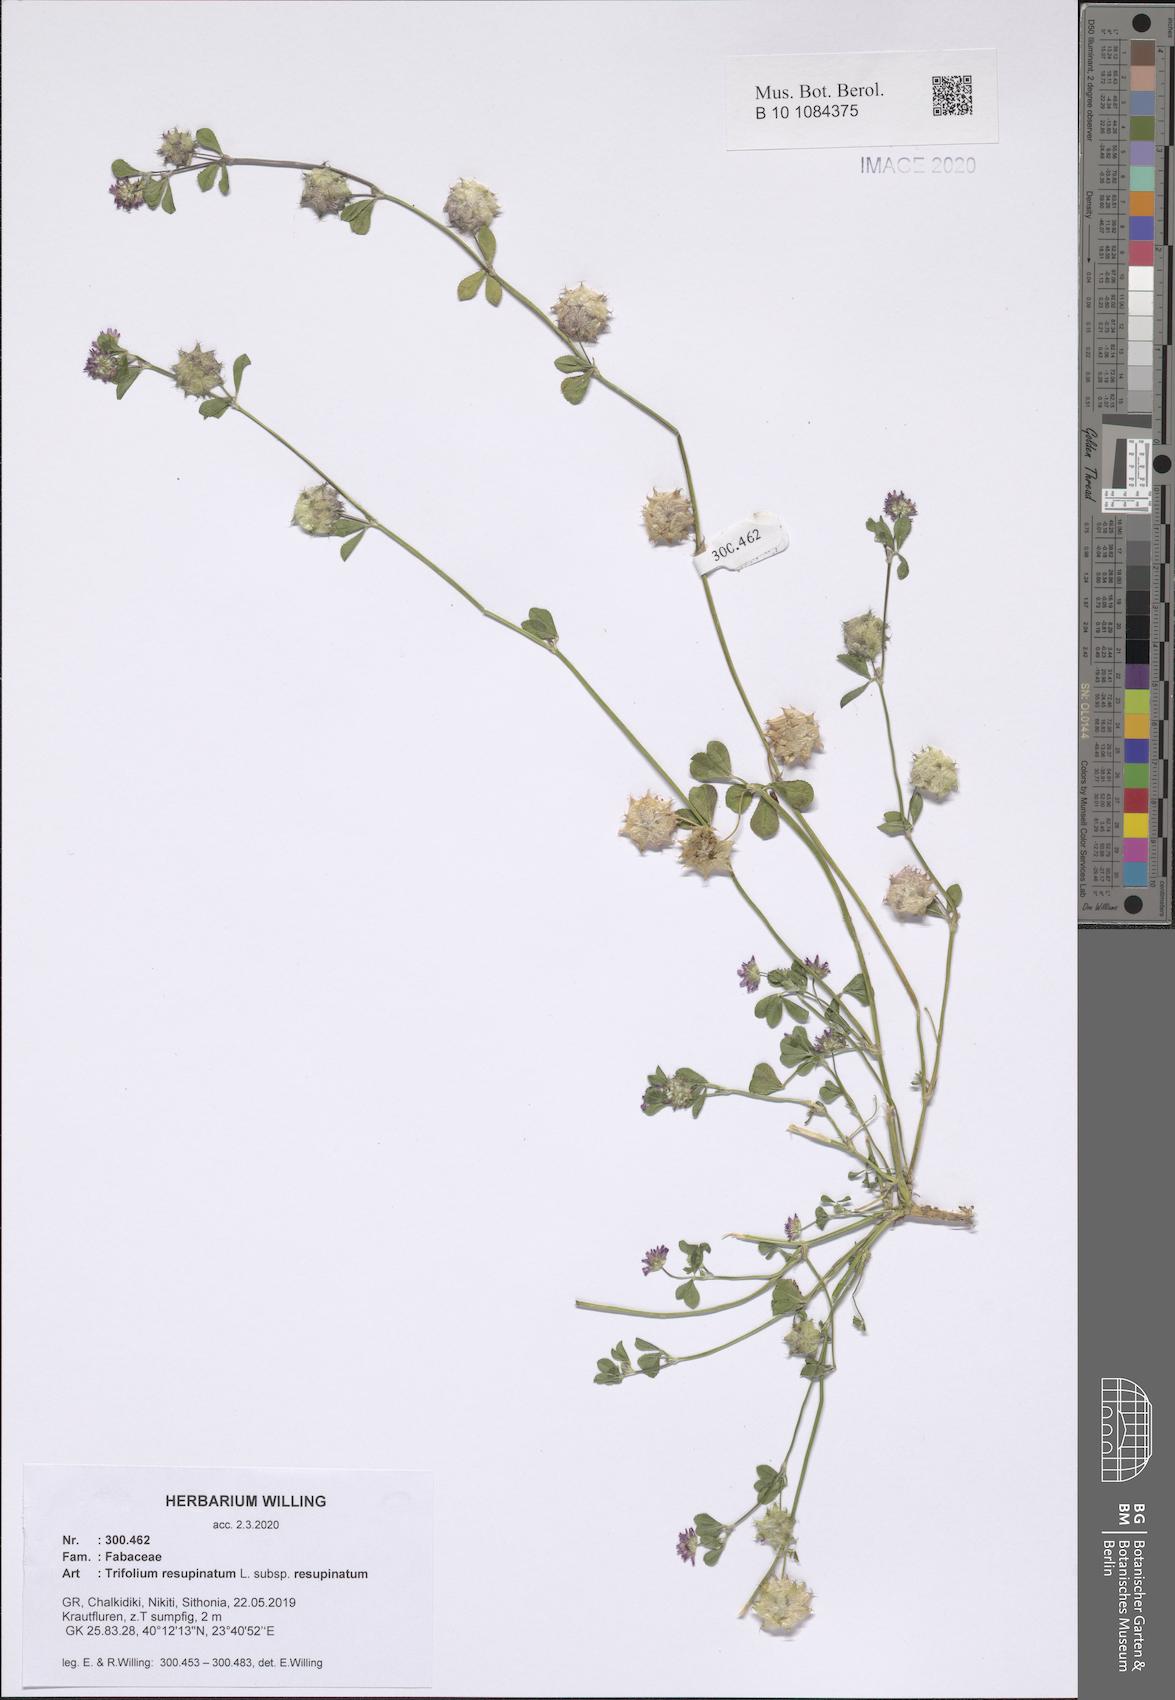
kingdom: Plantae
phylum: Tracheophyta
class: Magnoliopsida
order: Fabales
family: Fabaceae
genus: Trifolium
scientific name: Trifolium resupinatum
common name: Reversed clover
